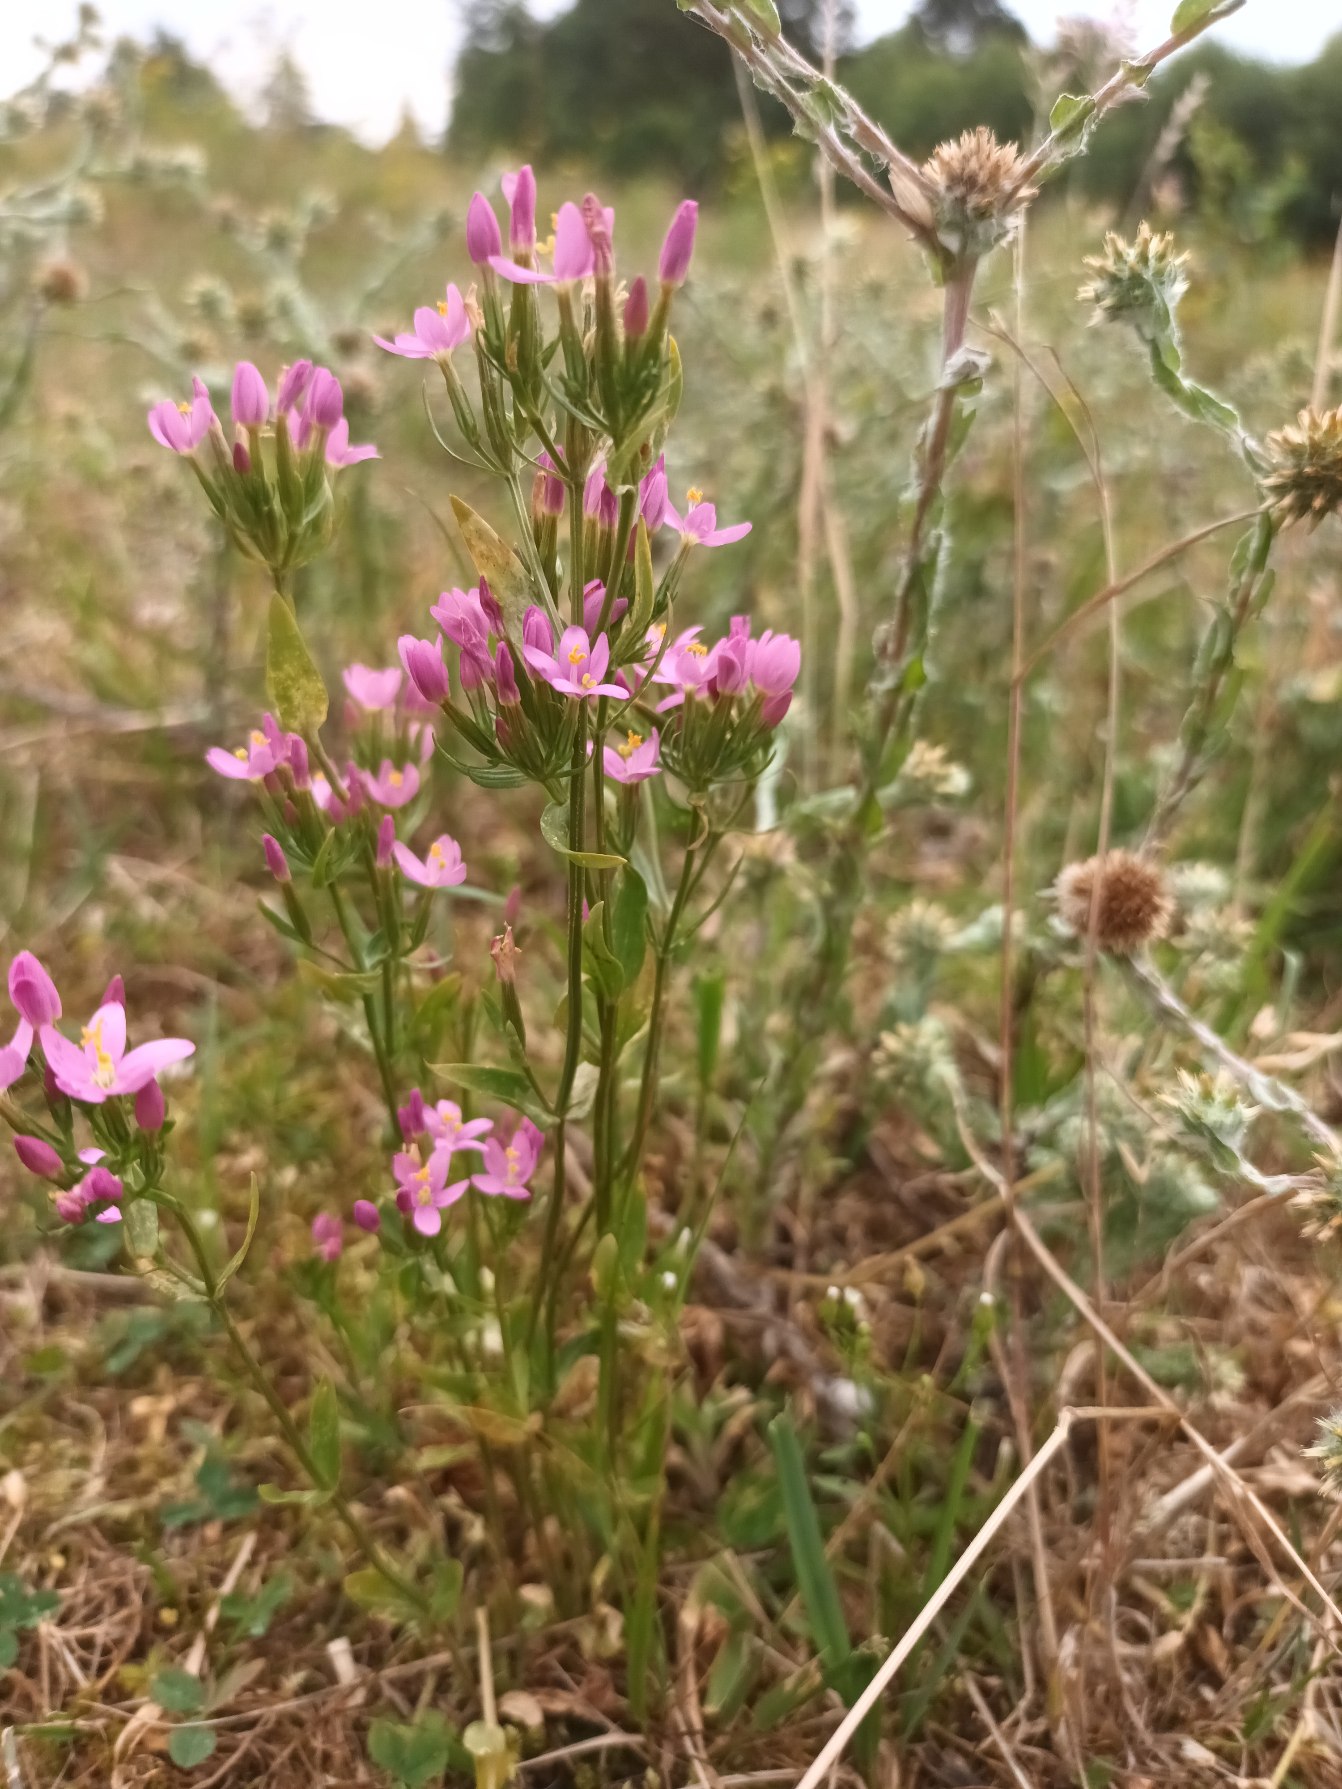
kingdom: Plantae
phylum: Tracheophyta
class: Magnoliopsida
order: Gentianales
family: Gentianaceae
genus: Centaurium
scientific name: Centaurium erythraea
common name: Mark-tusindgylden
